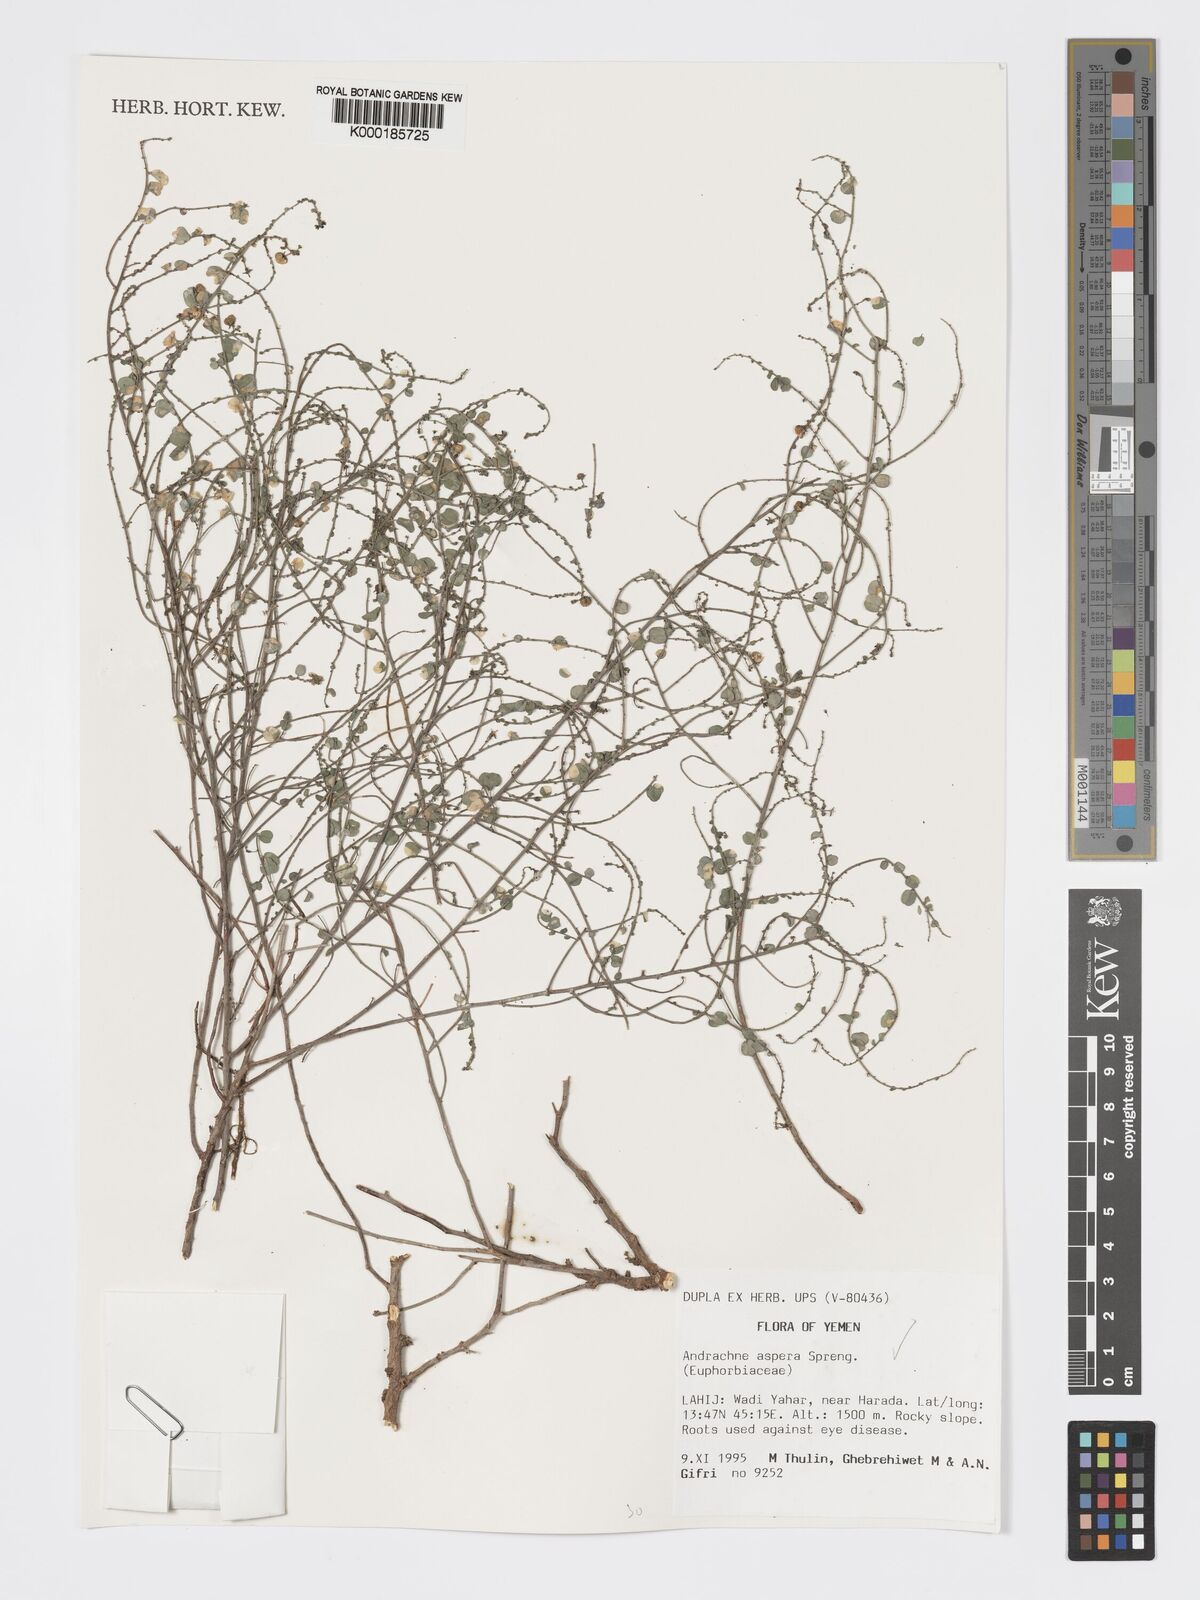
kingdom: Plantae
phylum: Tracheophyta
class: Magnoliopsida
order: Malpighiales
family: Phyllanthaceae
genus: Andrachne
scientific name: Andrachne aspera
